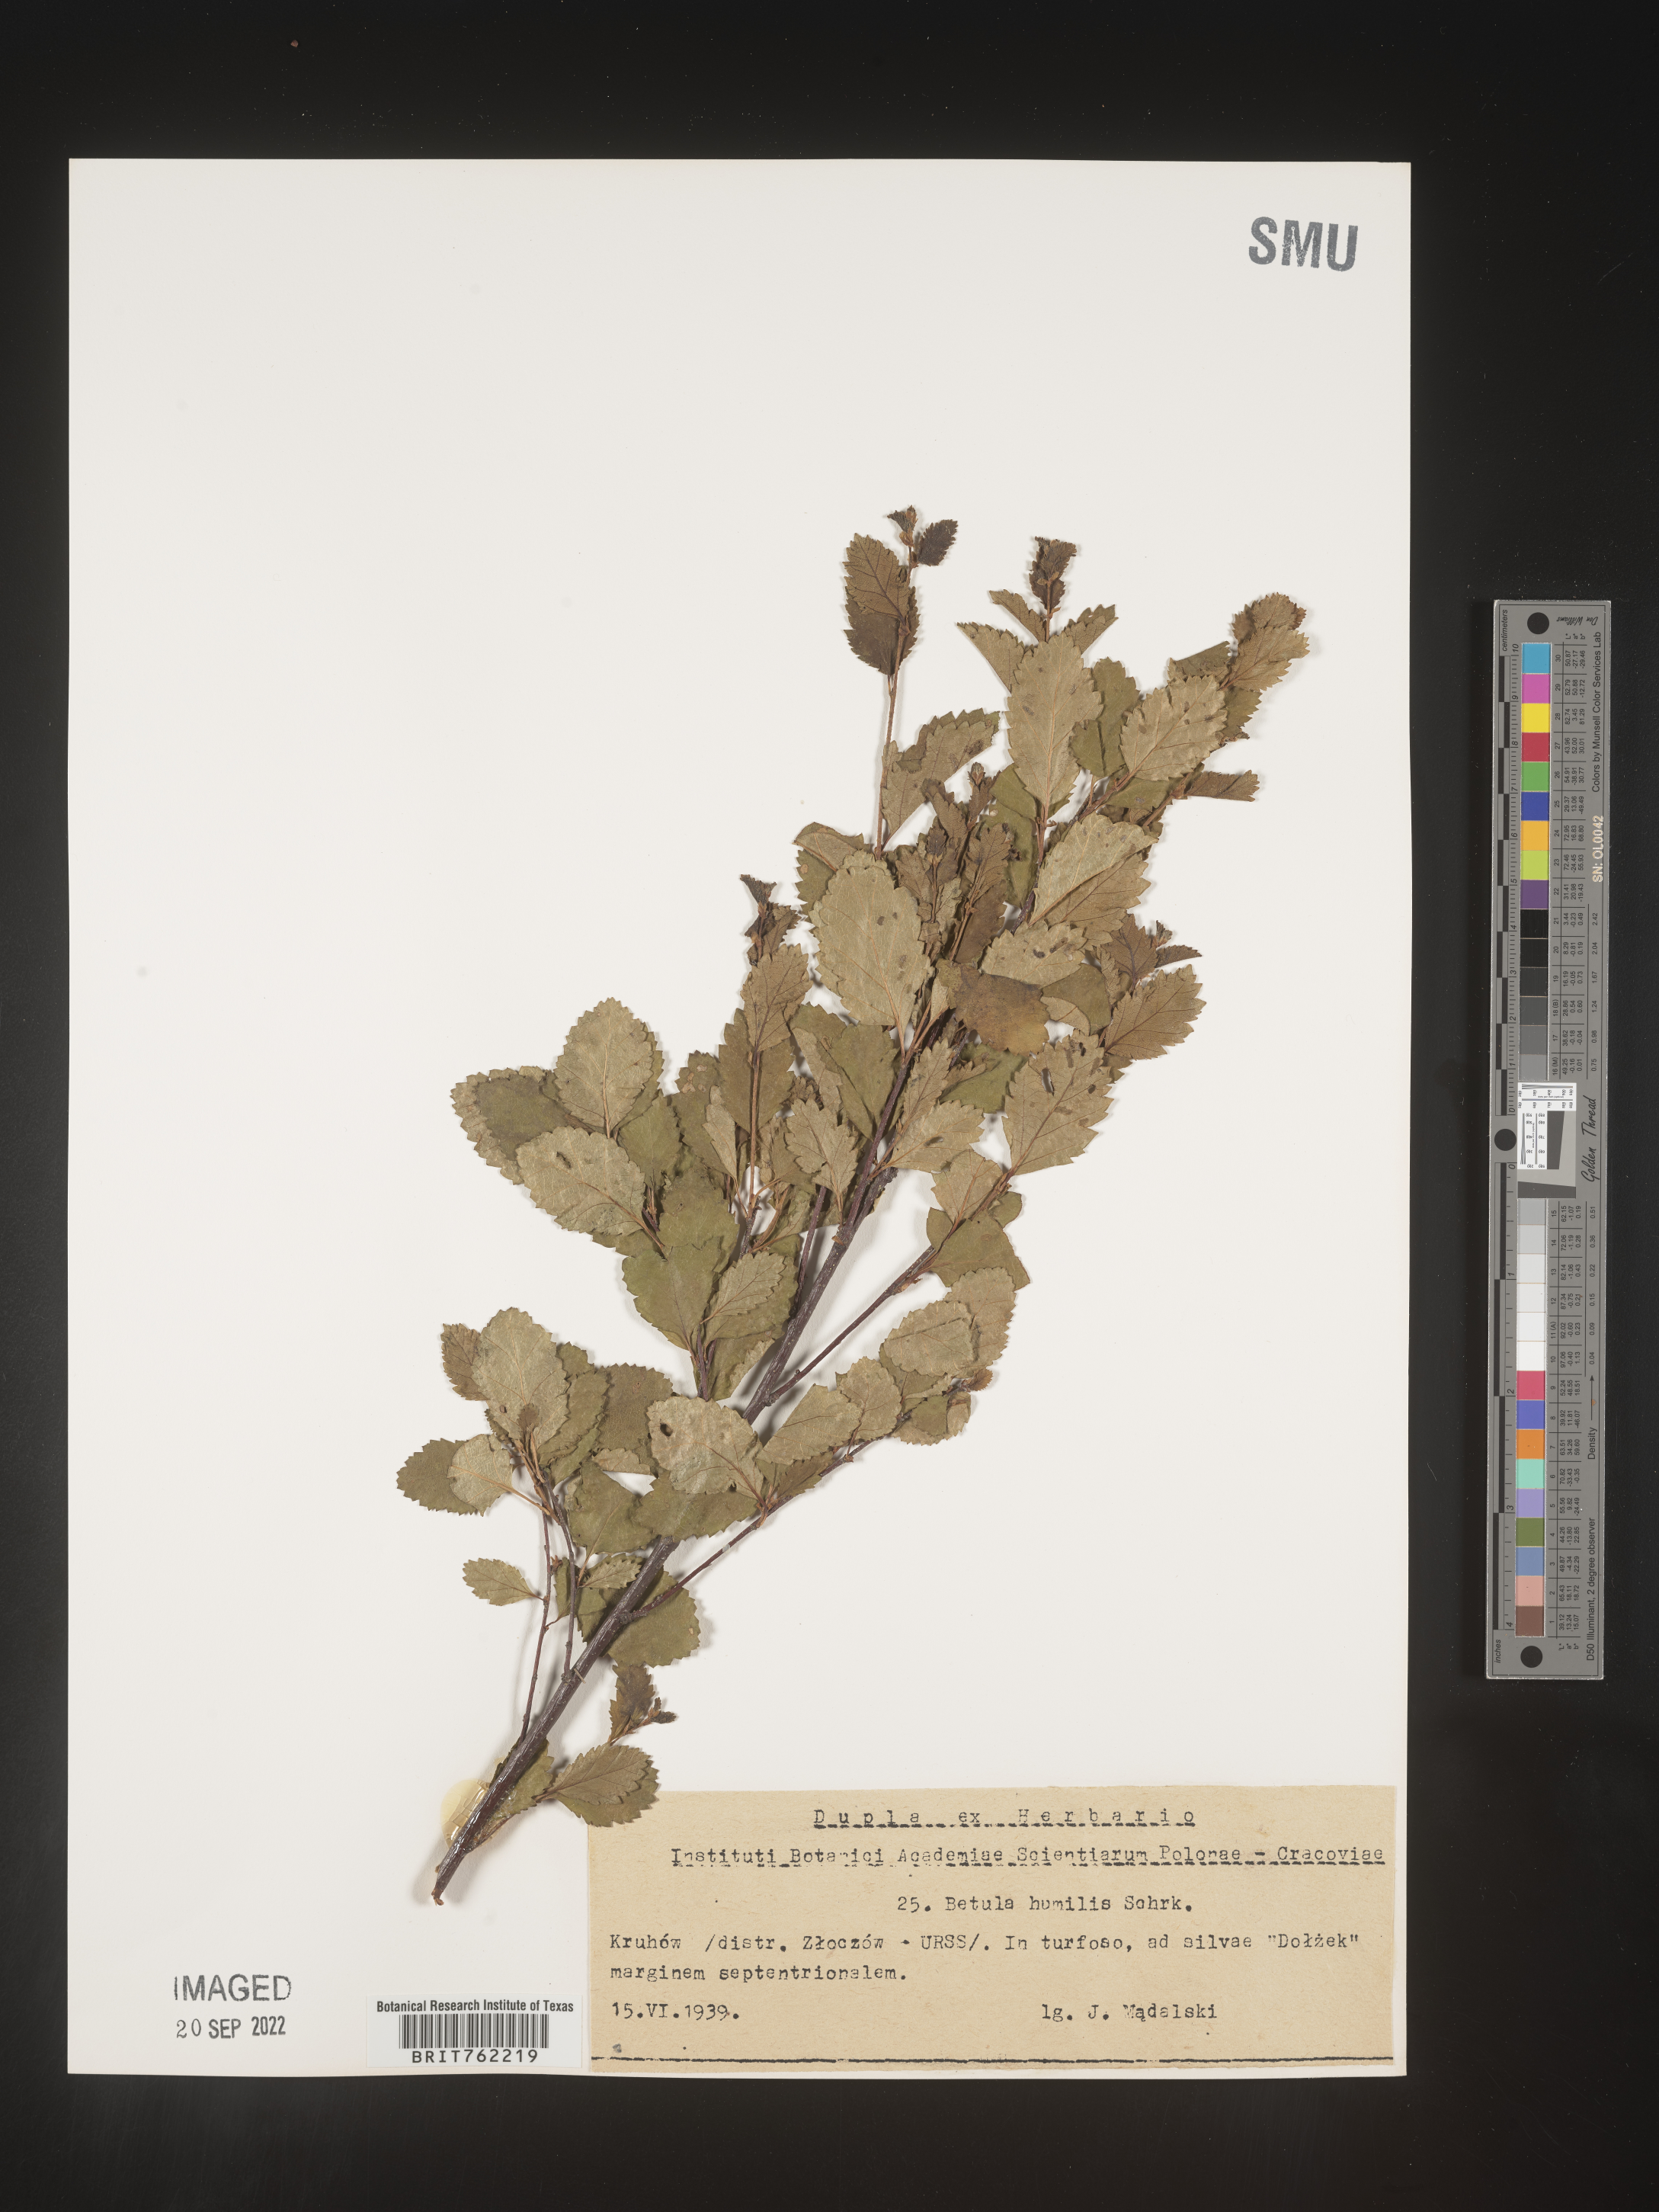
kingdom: Plantae
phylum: Tracheophyta
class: Magnoliopsida
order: Fagales
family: Betulaceae
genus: Betula
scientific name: Betula
